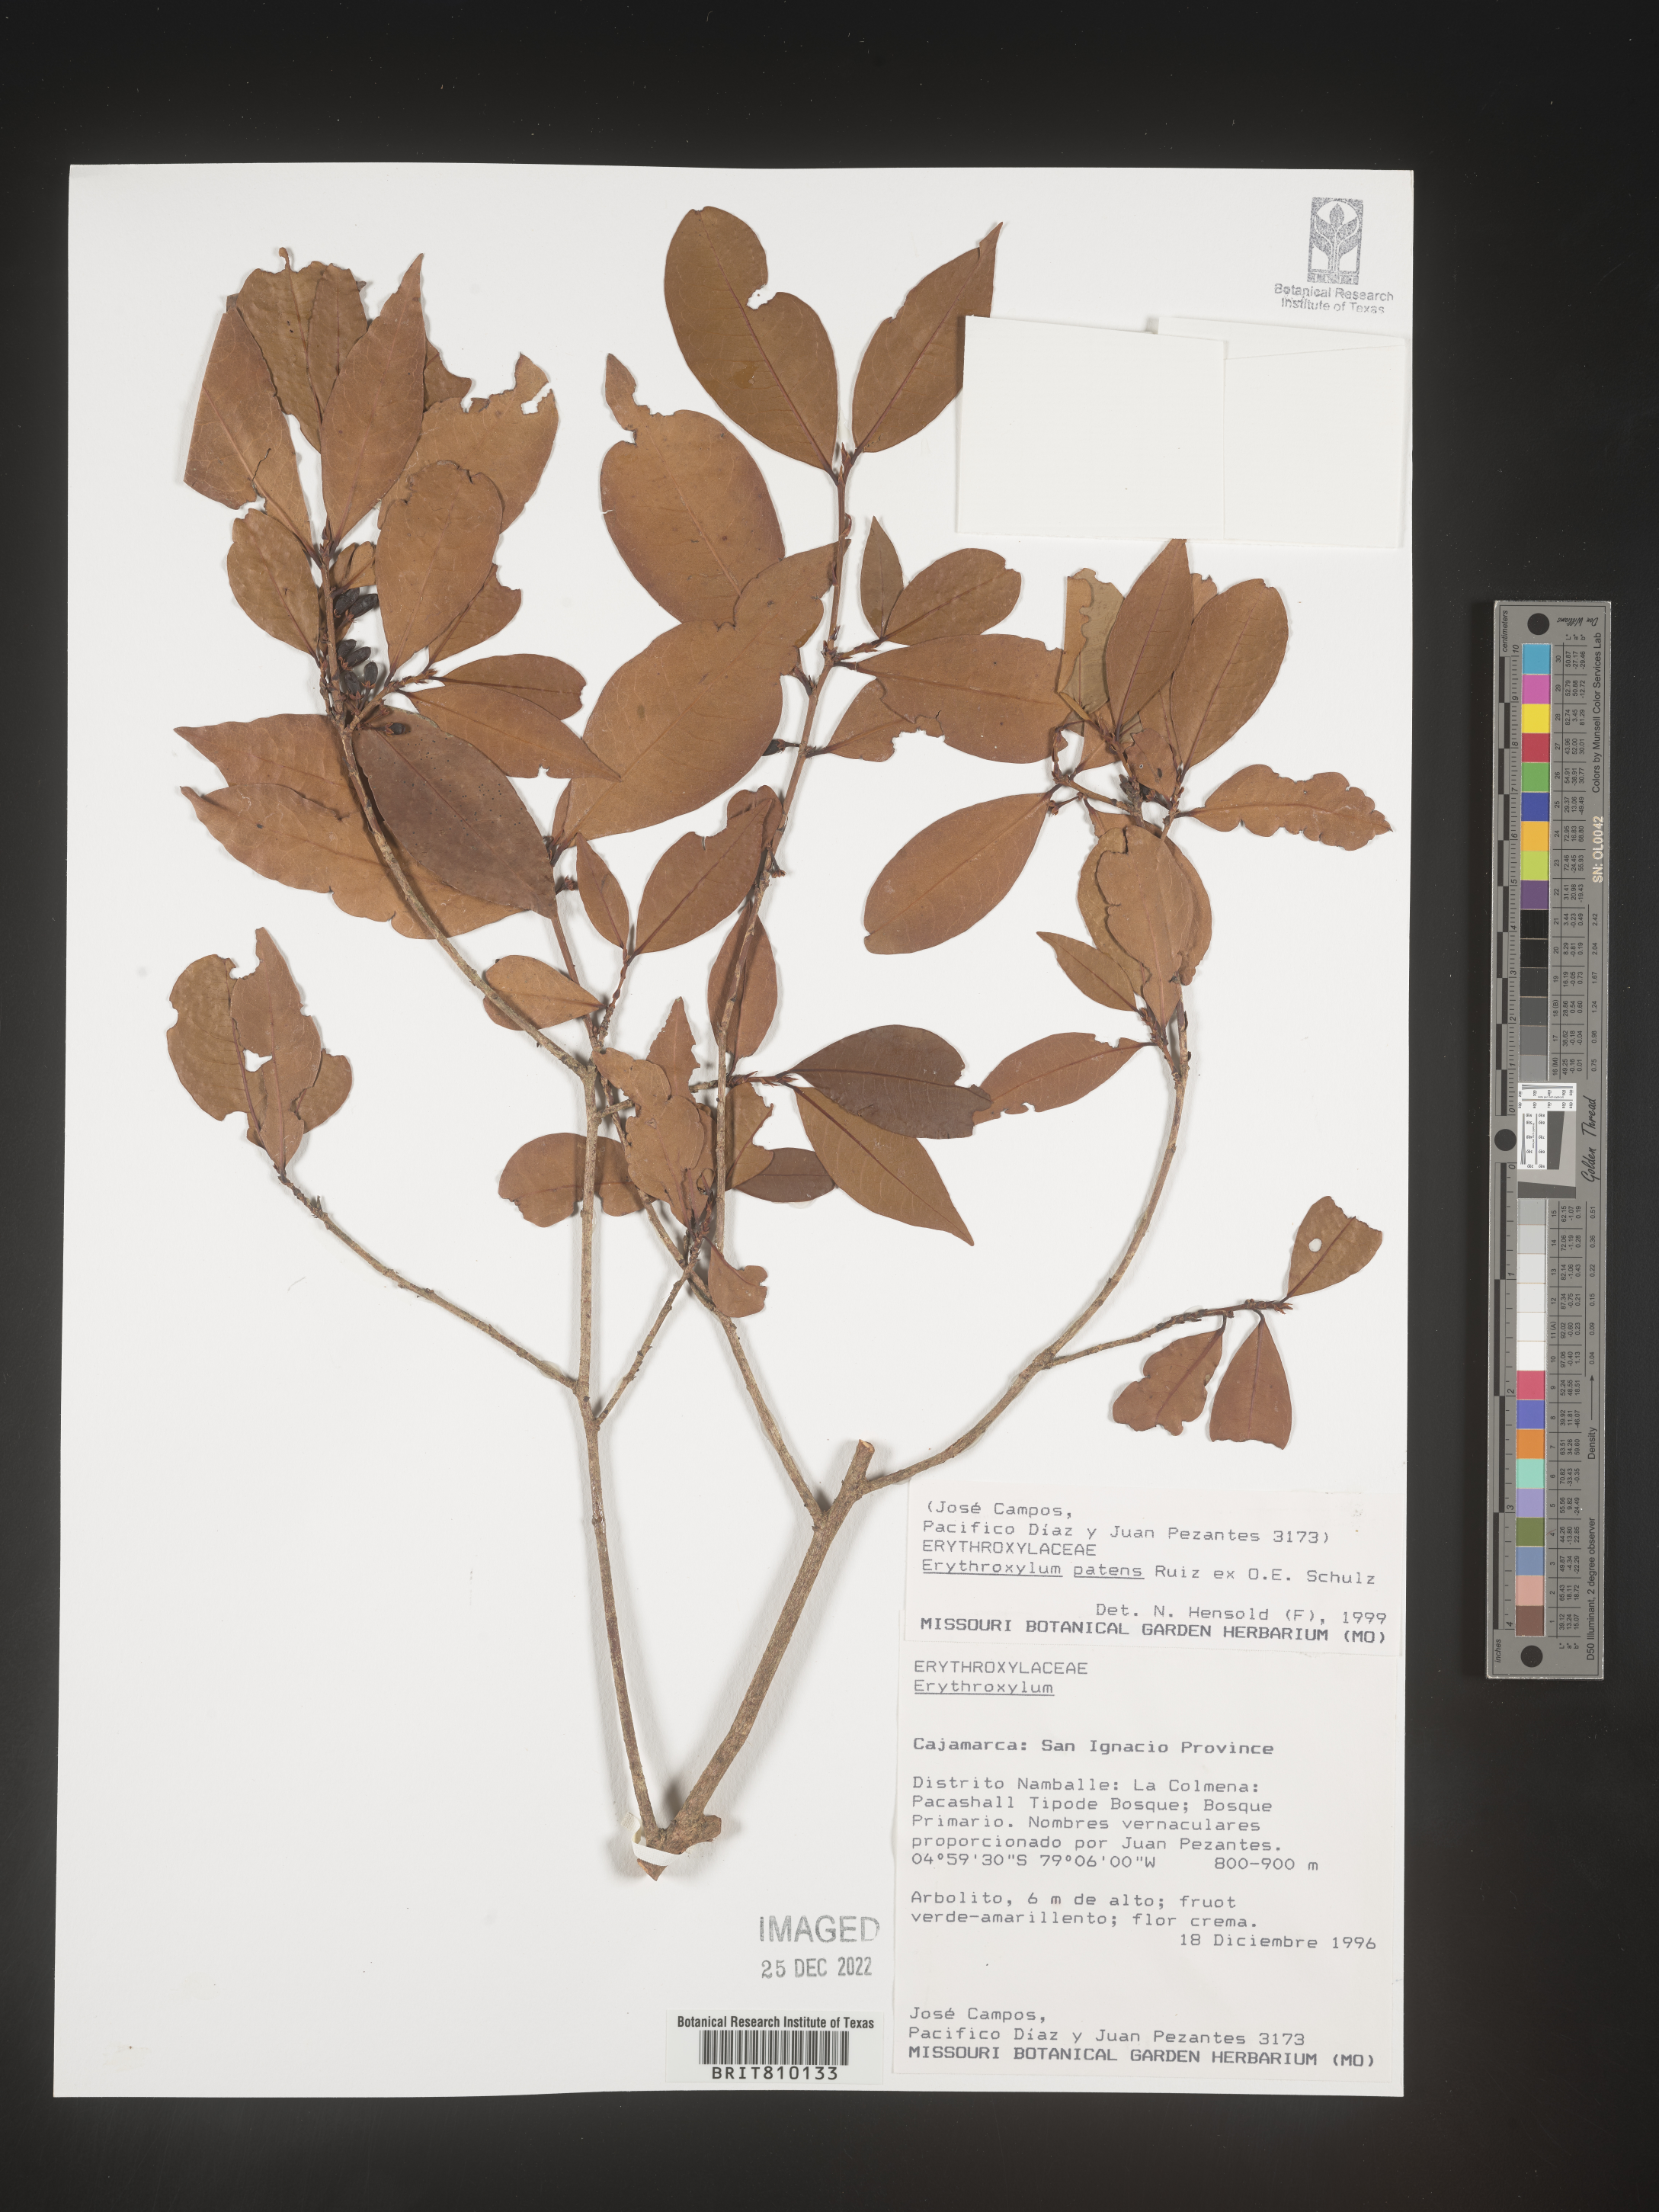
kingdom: Plantae
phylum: Tracheophyta
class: Magnoliopsida
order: Malpighiales
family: Erythroxylaceae
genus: Erythroxylum
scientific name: Erythroxylum
